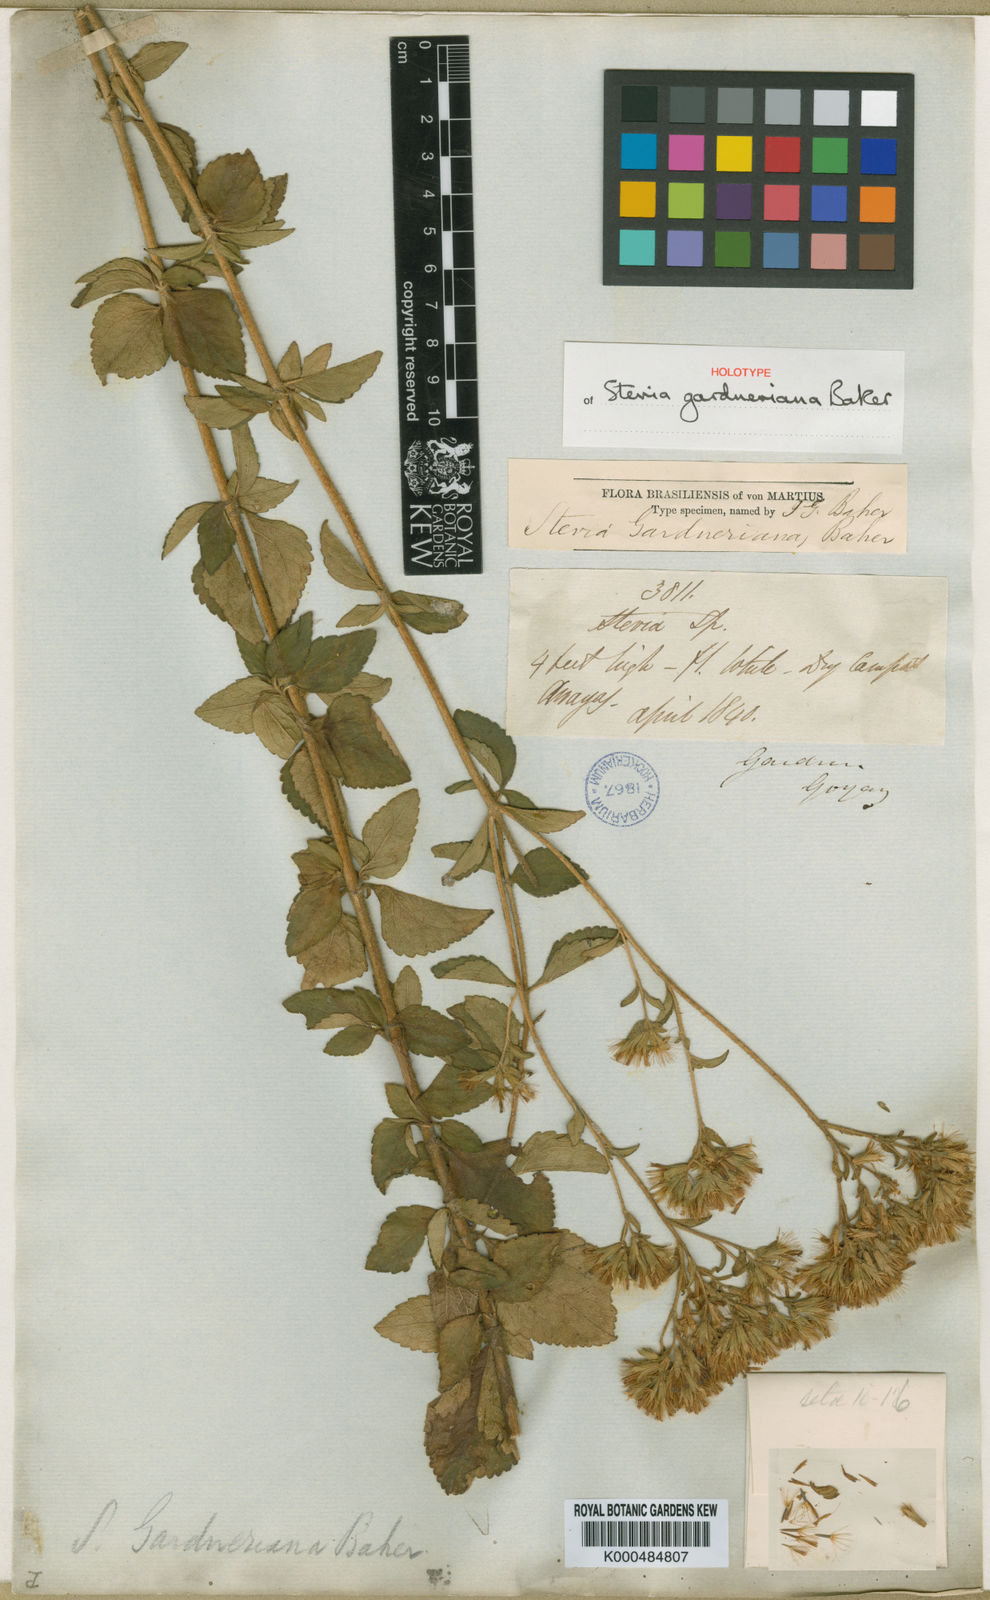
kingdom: Plantae
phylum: Tracheophyta
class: Magnoliopsida
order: Asterales
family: Asteraceae
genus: Stevia
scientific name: Stevia gardneriana
